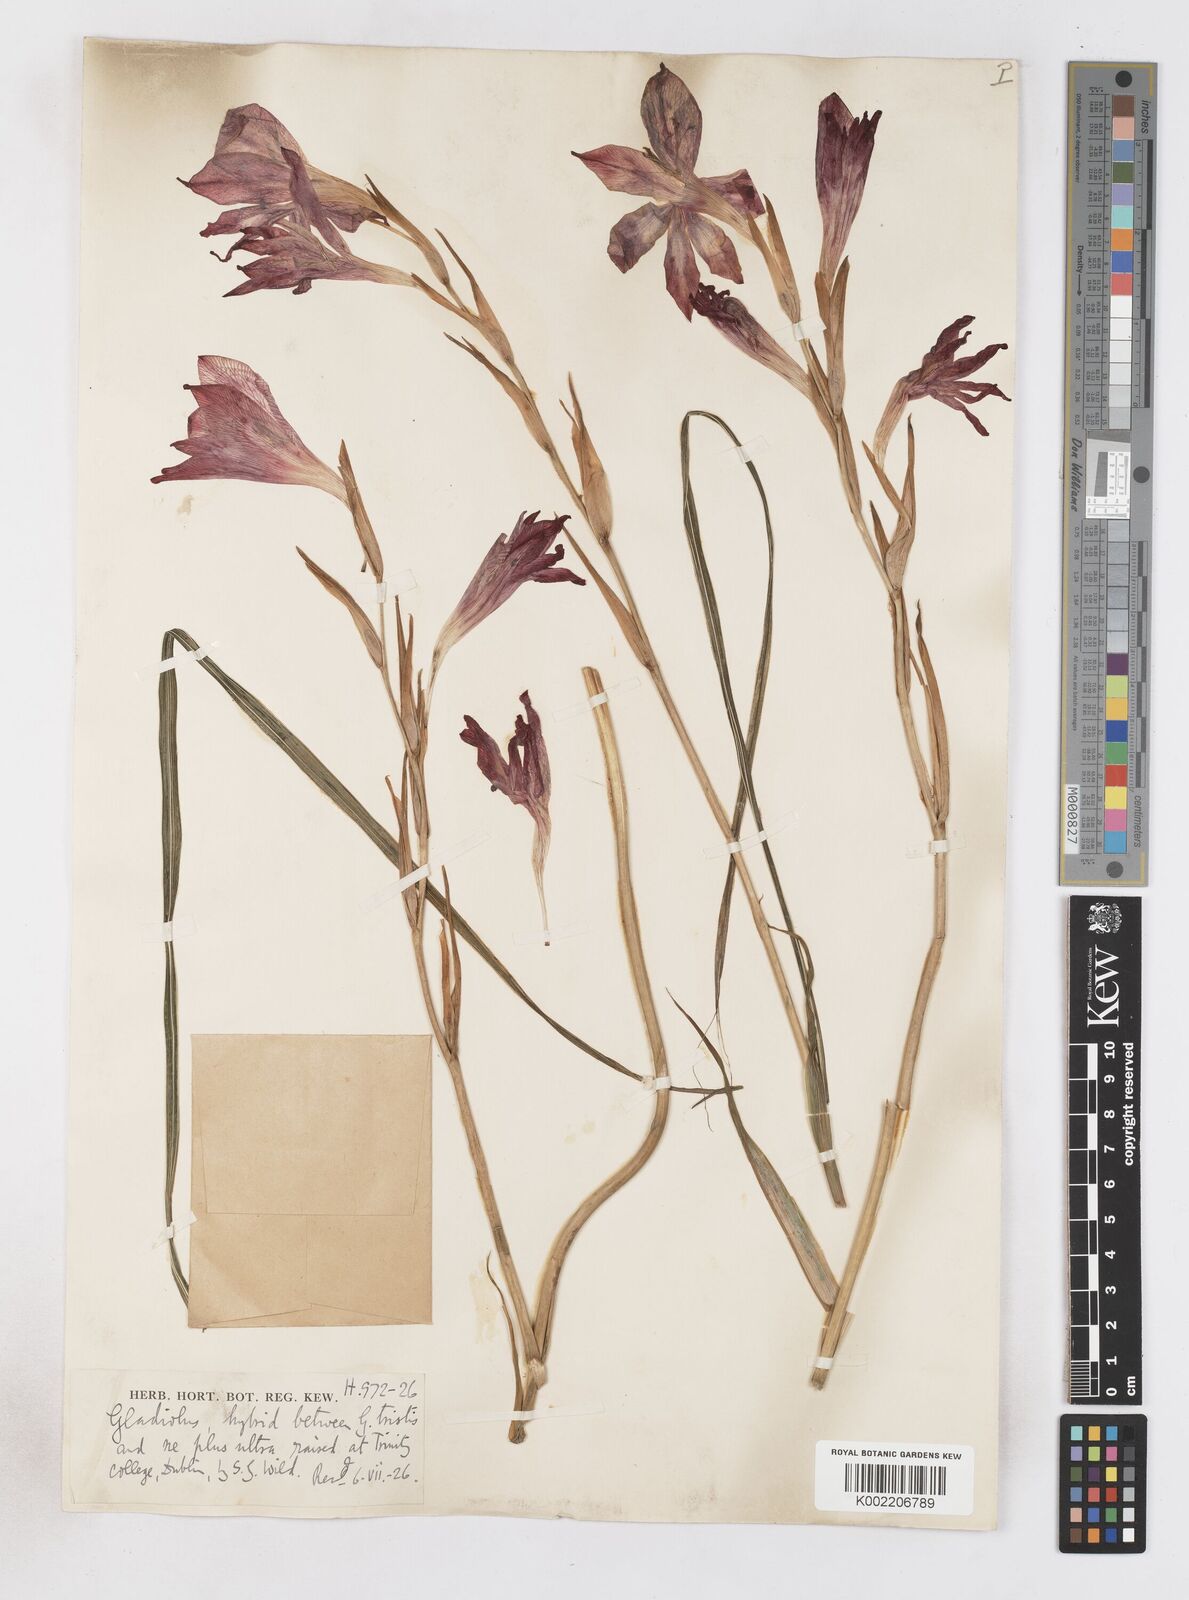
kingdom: Plantae
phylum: Tracheophyta
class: Liliopsida
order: Asparagales
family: Iridaceae
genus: Gladiolus
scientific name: Gladiolus tristis
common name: Ever-flowering gladiolus
